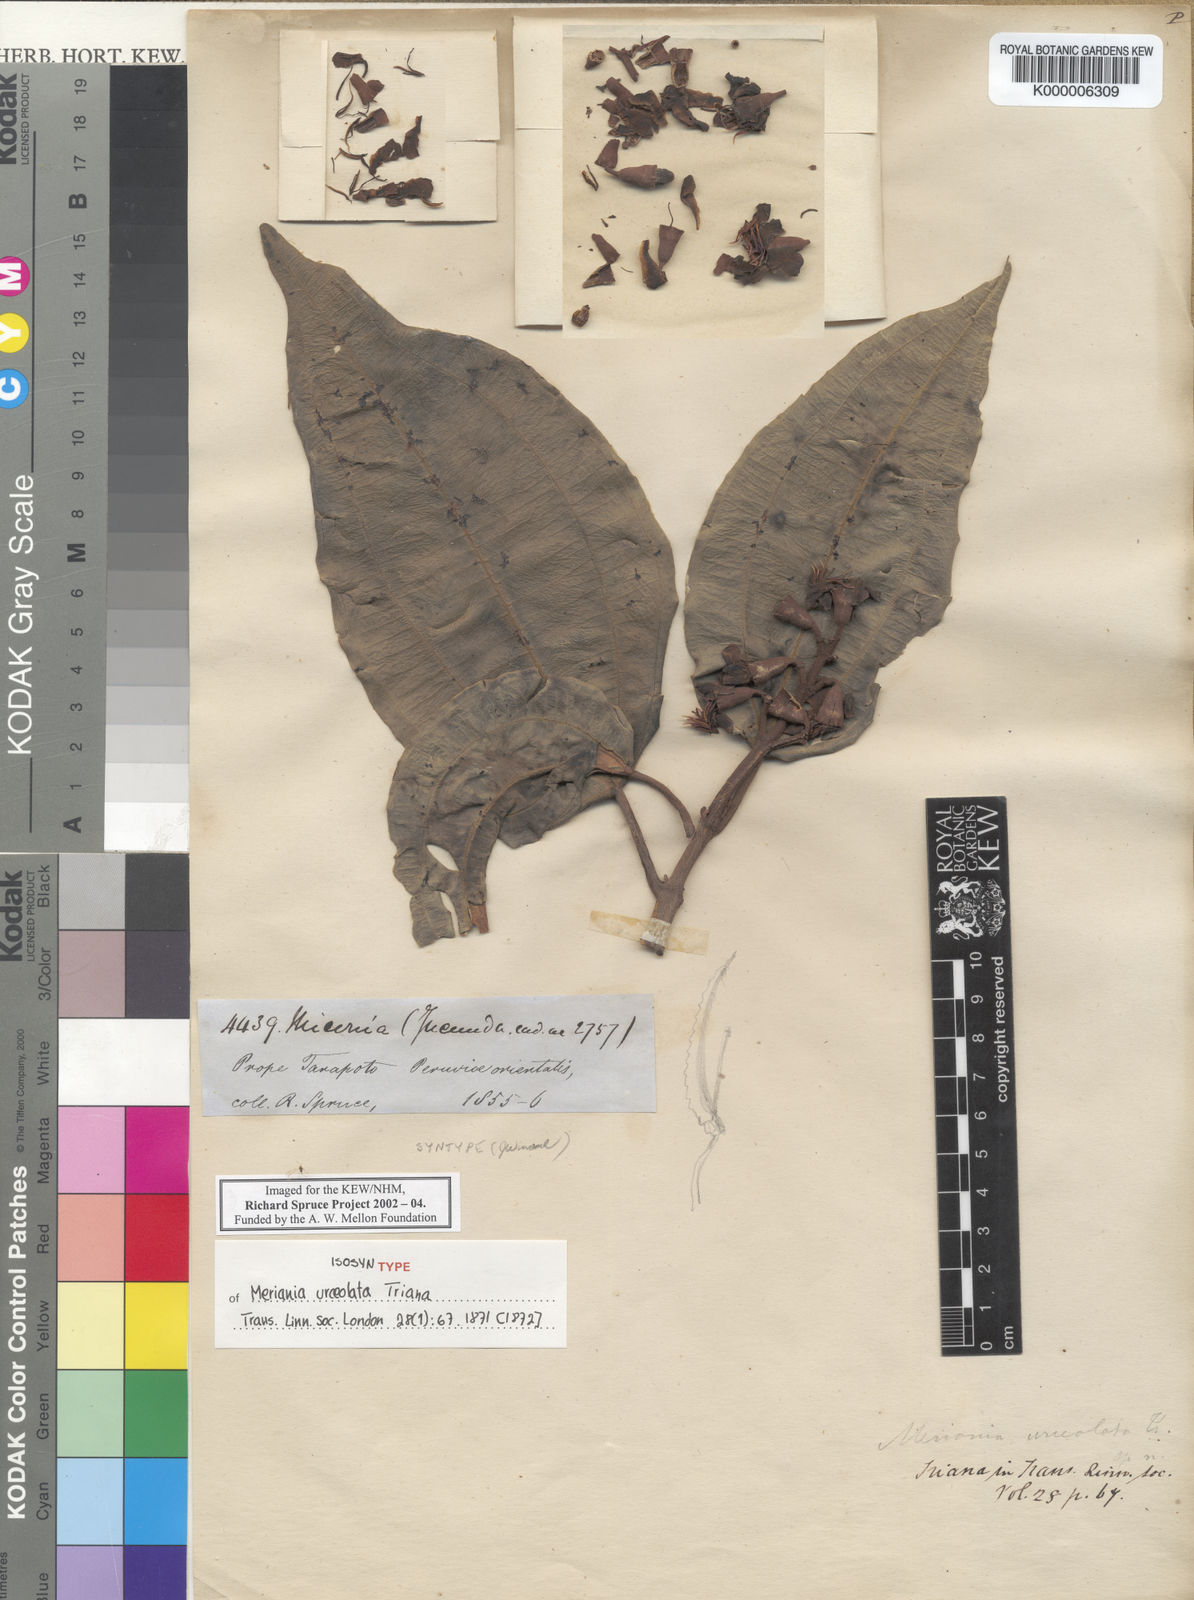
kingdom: Plantae
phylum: Tracheophyta
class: Magnoliopsida
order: Myrtales
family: Melastomataceae
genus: Meriania
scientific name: Meriania urceolata
